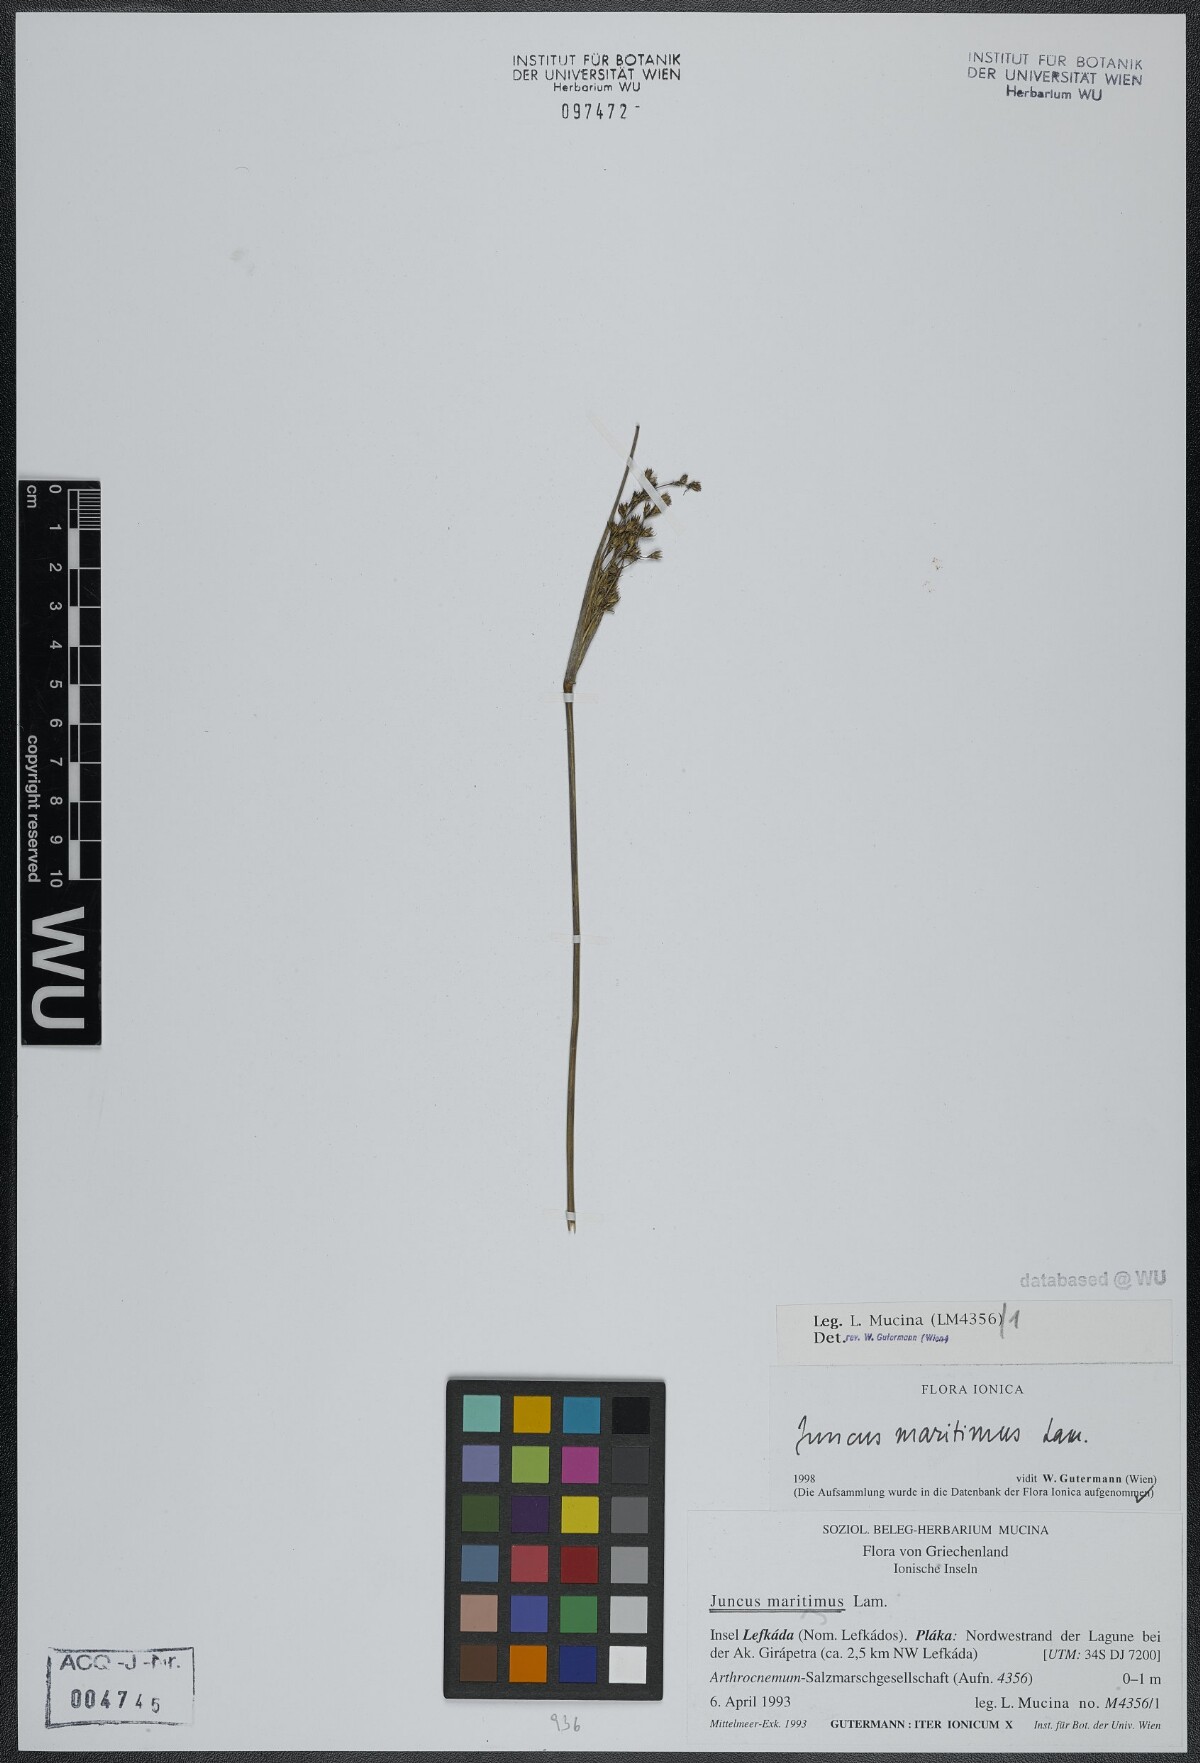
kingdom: Plantae
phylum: Tracheophyta
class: Liliopsida
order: Poales
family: Juncaceae
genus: Juncus
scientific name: Juncus maritimus
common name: Sea rush
